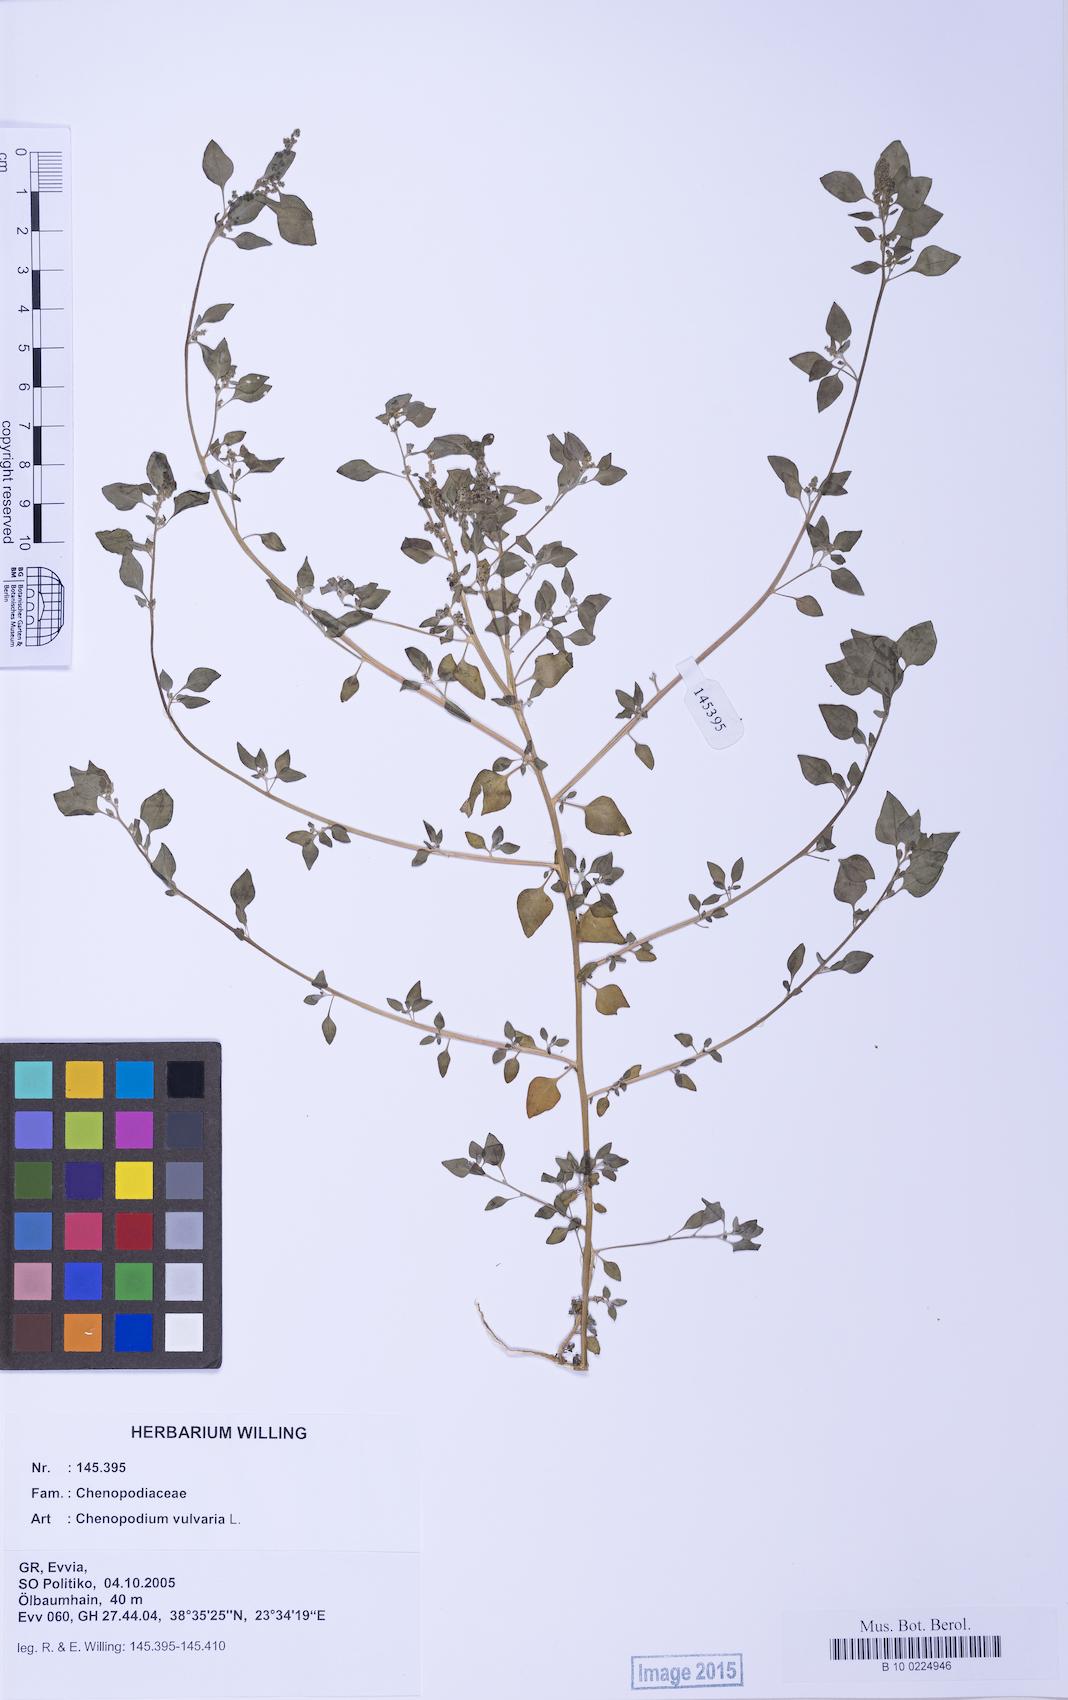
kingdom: Plantae
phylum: Tracheophyta
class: Magnoliopsida
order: Caryophyllales
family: Amaranthaceae
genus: Chenopodium
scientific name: Chenopodium vulvaria
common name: Stinking goosefoot
